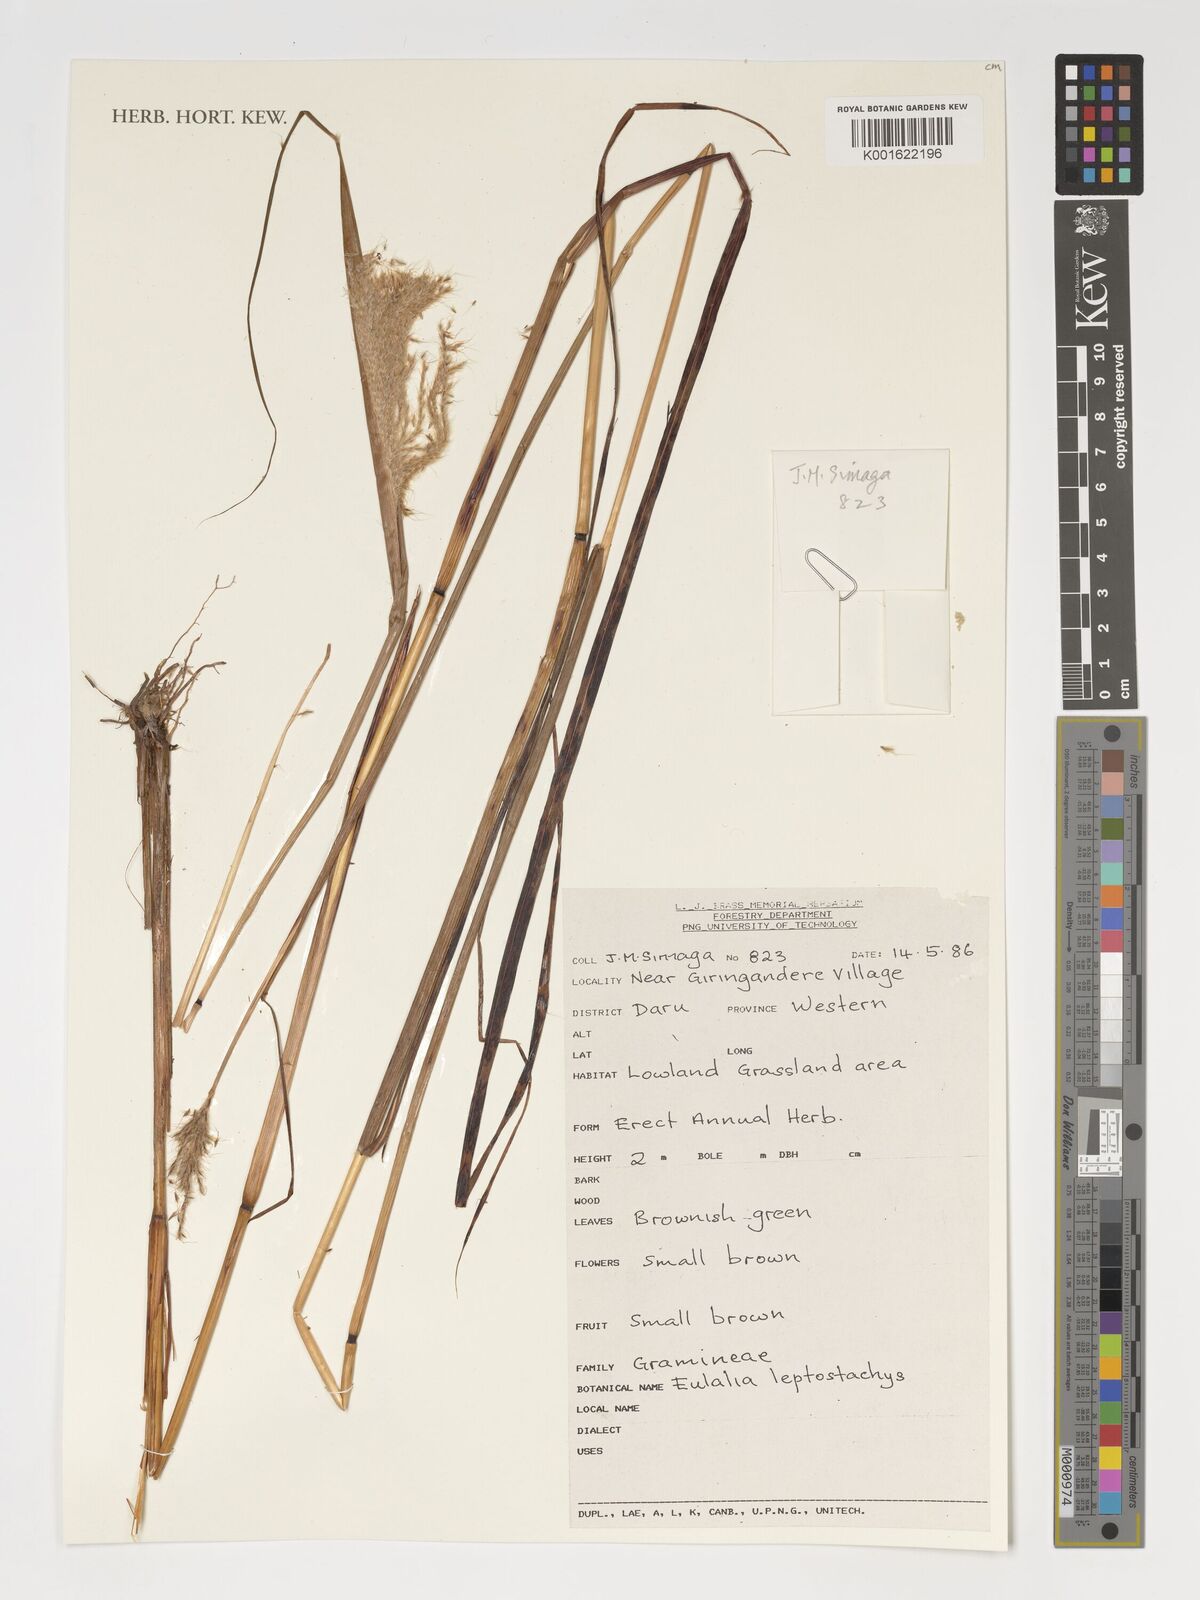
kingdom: Plantae
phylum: Tracheophyta
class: Liliopsida
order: Poales
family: Poaceae
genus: Eulalia
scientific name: Eulalia leptostachys
